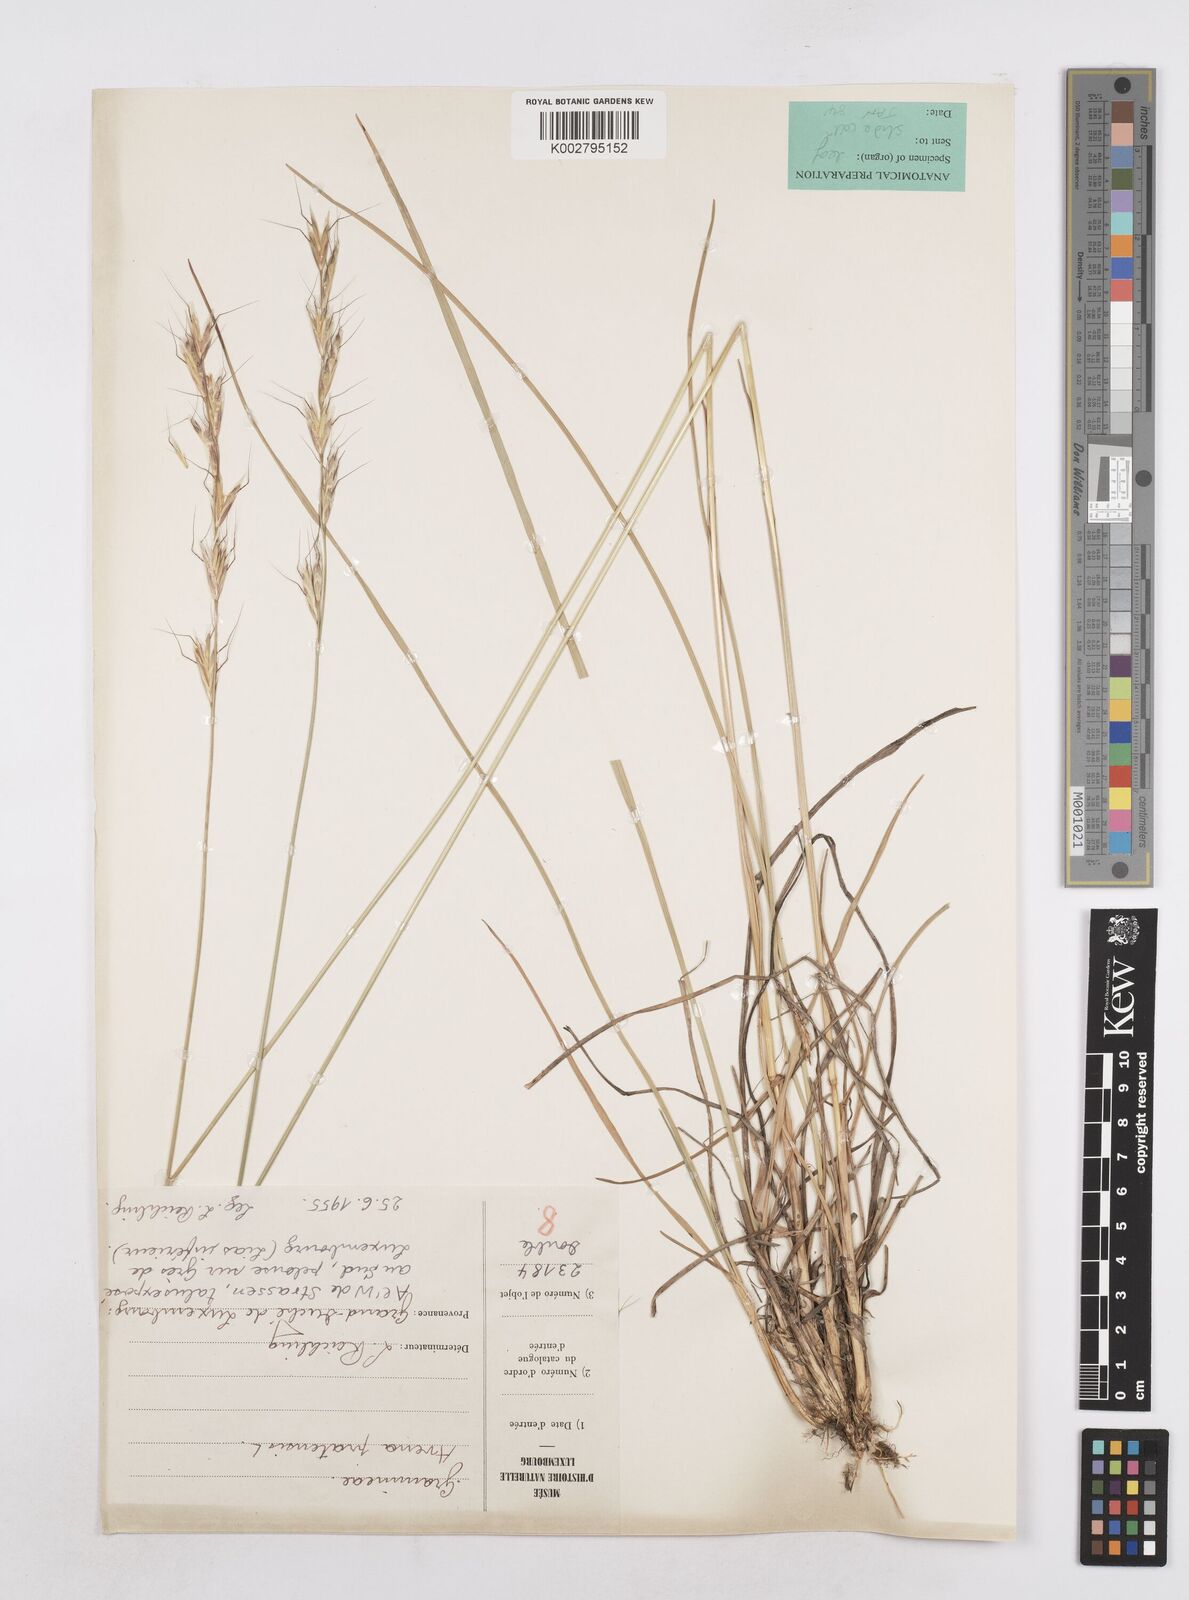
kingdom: Plantae
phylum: Tracheophyta
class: Liliopsida
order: Poales
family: Poaceae
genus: Helictochloa
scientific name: Helictochloa pratensis
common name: Meadow oat grass
